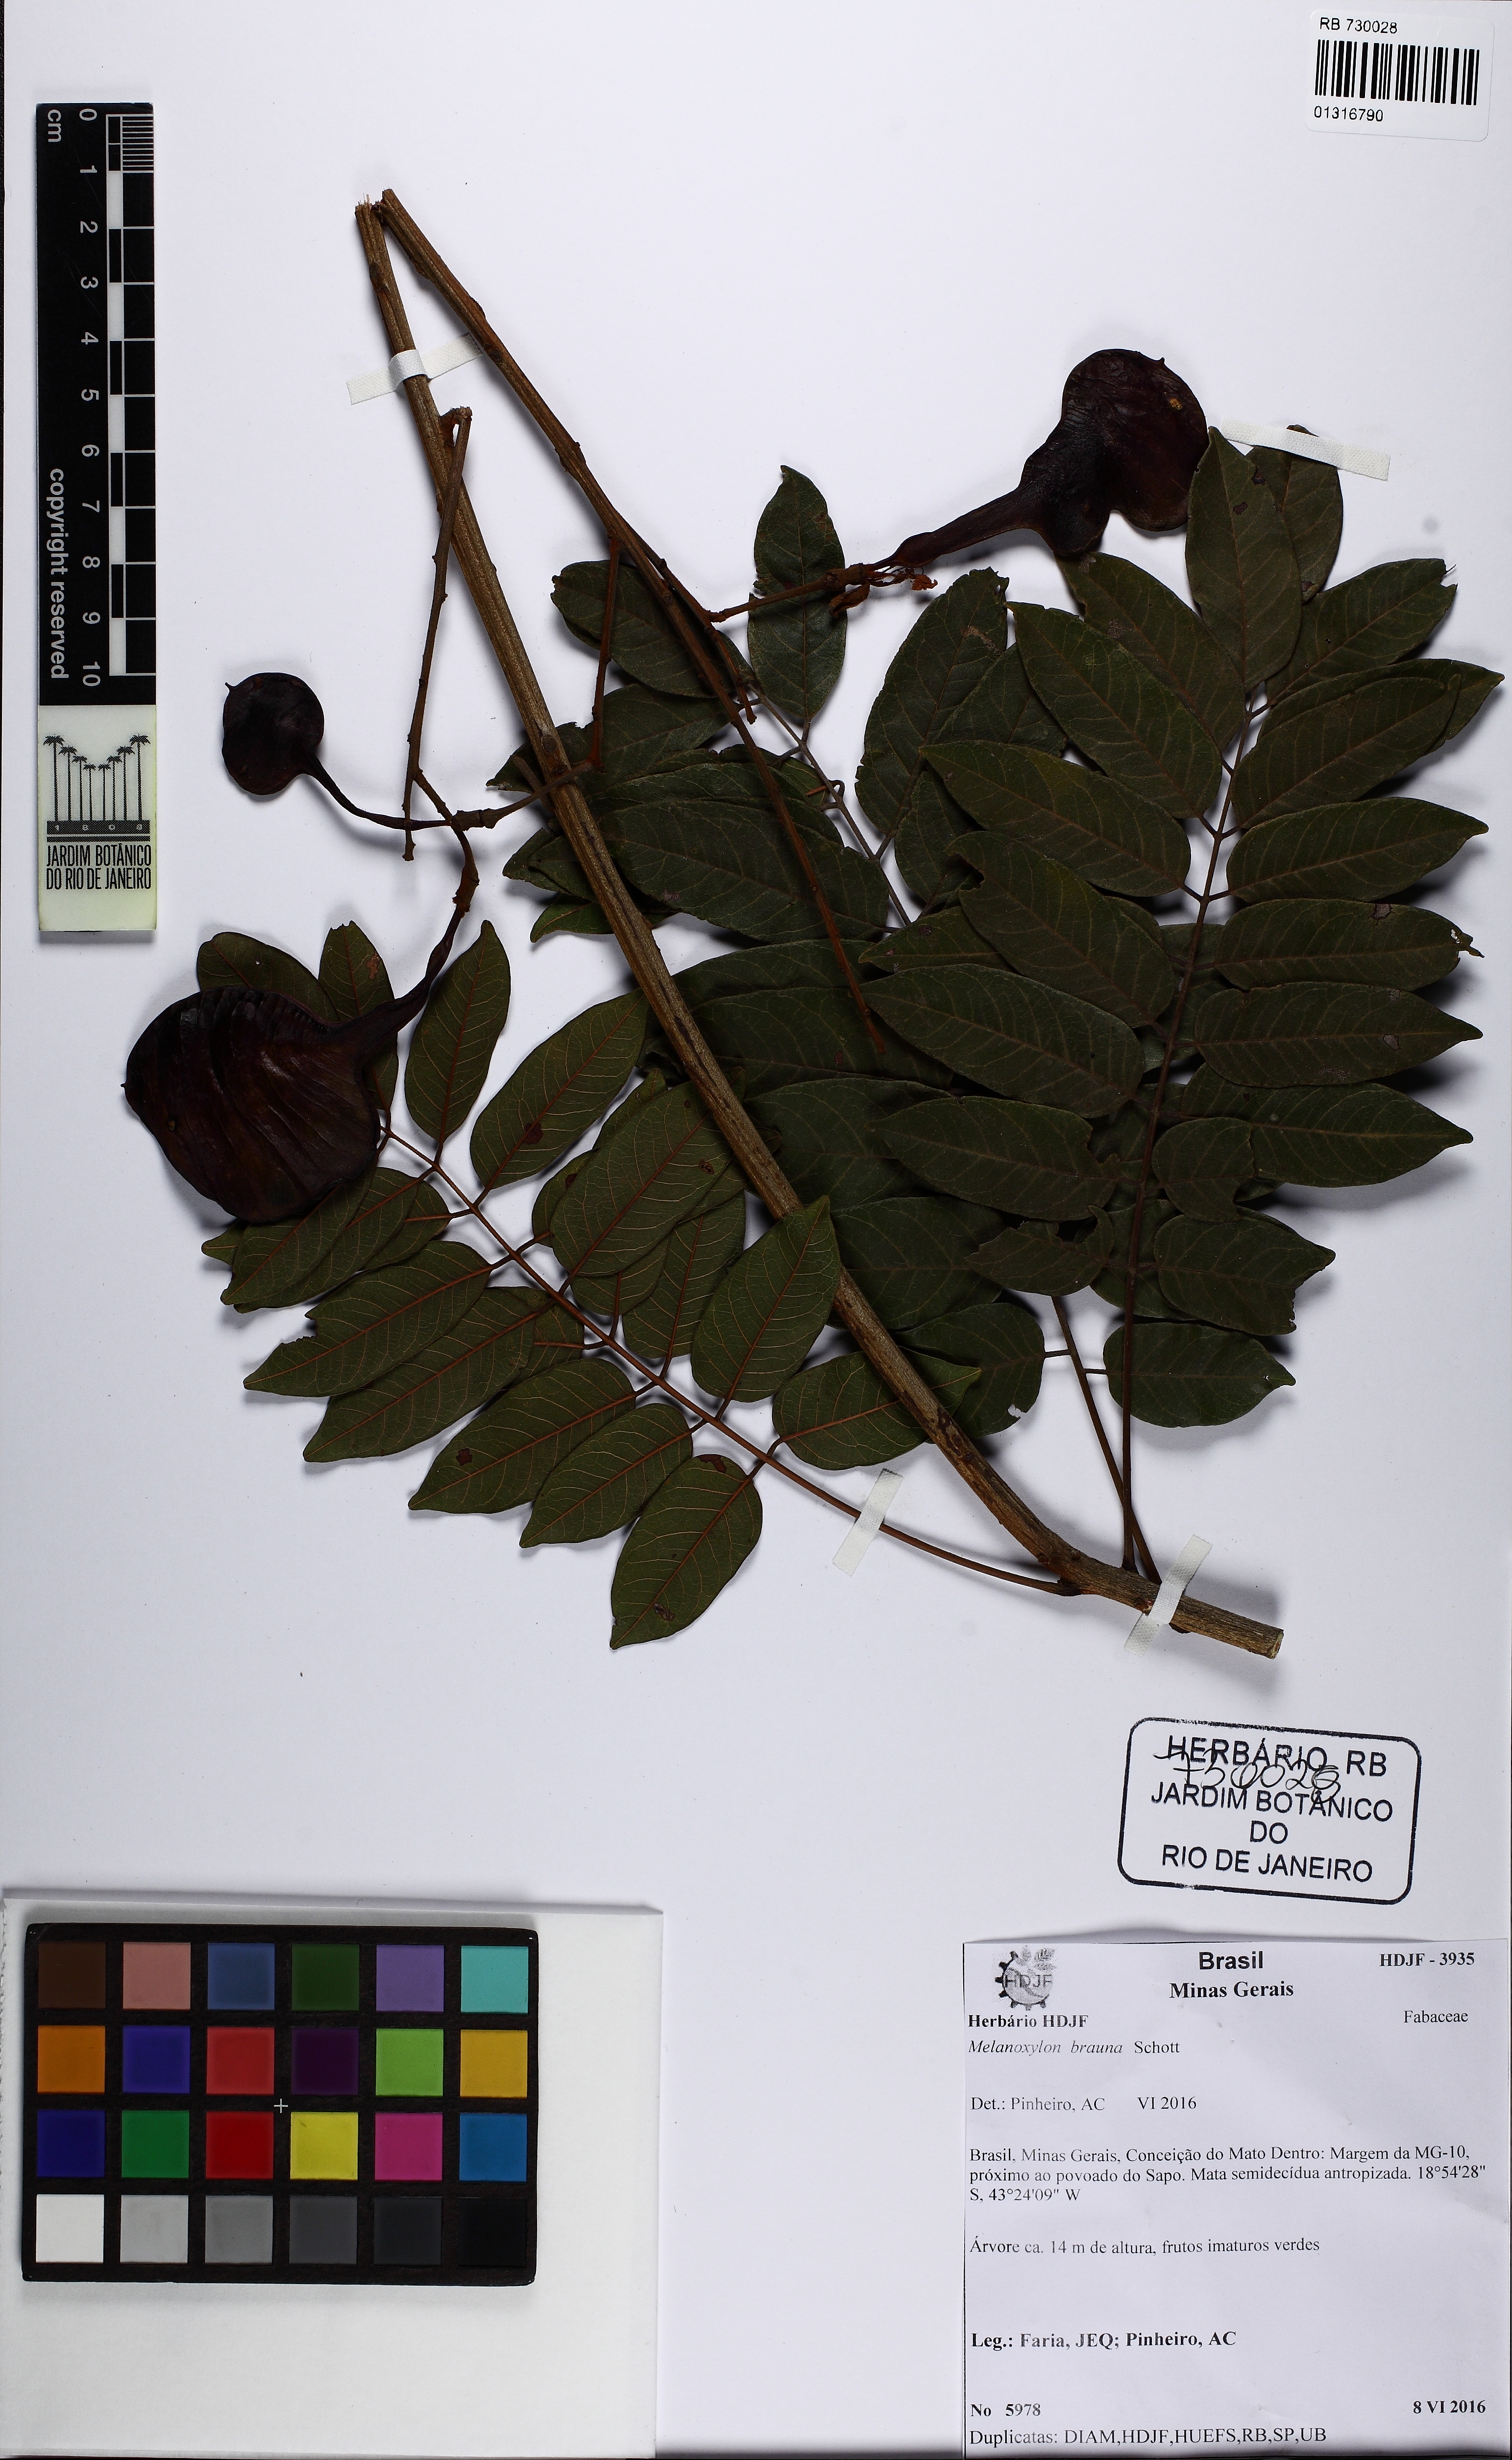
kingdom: Plantae
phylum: Tracheophyta
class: Magnoliopsida
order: Fabales
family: Fabaceae
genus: Melanoxylon
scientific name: Melanoxylon brauna
